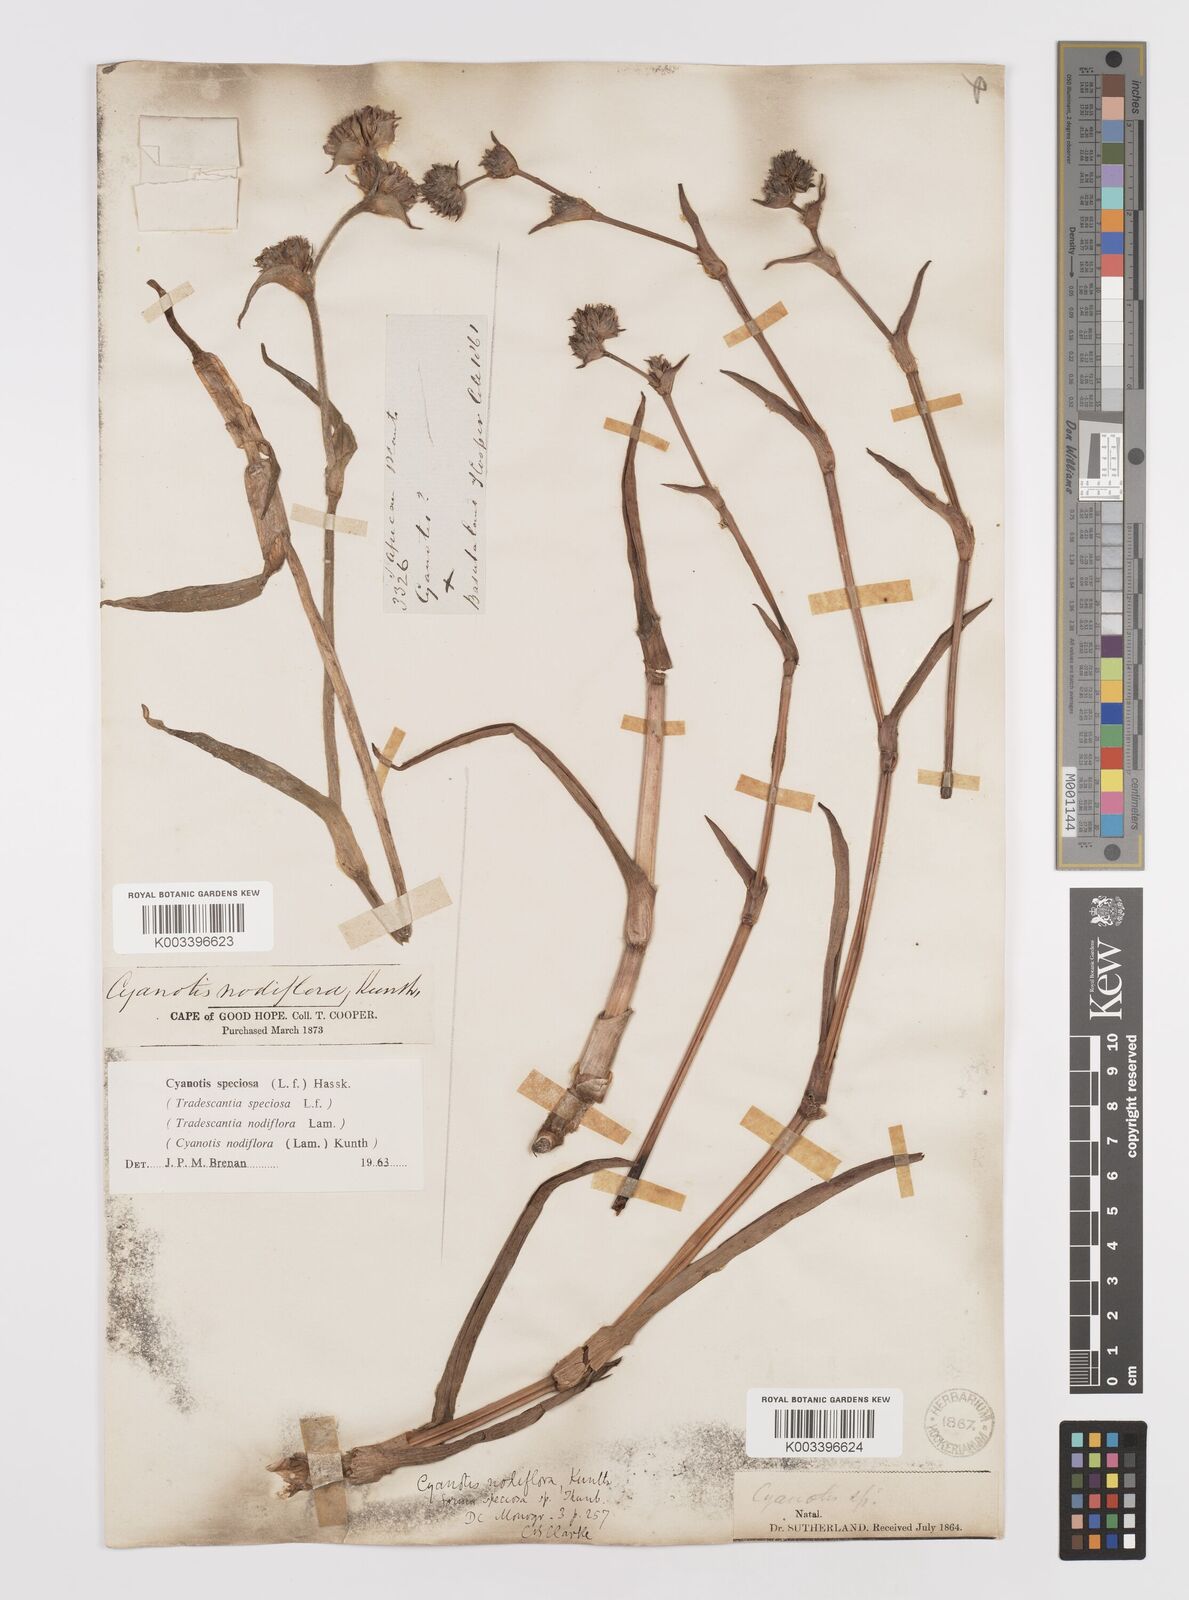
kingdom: Plantae
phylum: Tracheophyta
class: Liliopsida
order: Commelinales
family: Commelinaceae
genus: Cyanotis
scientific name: Cyanotis speciosa
